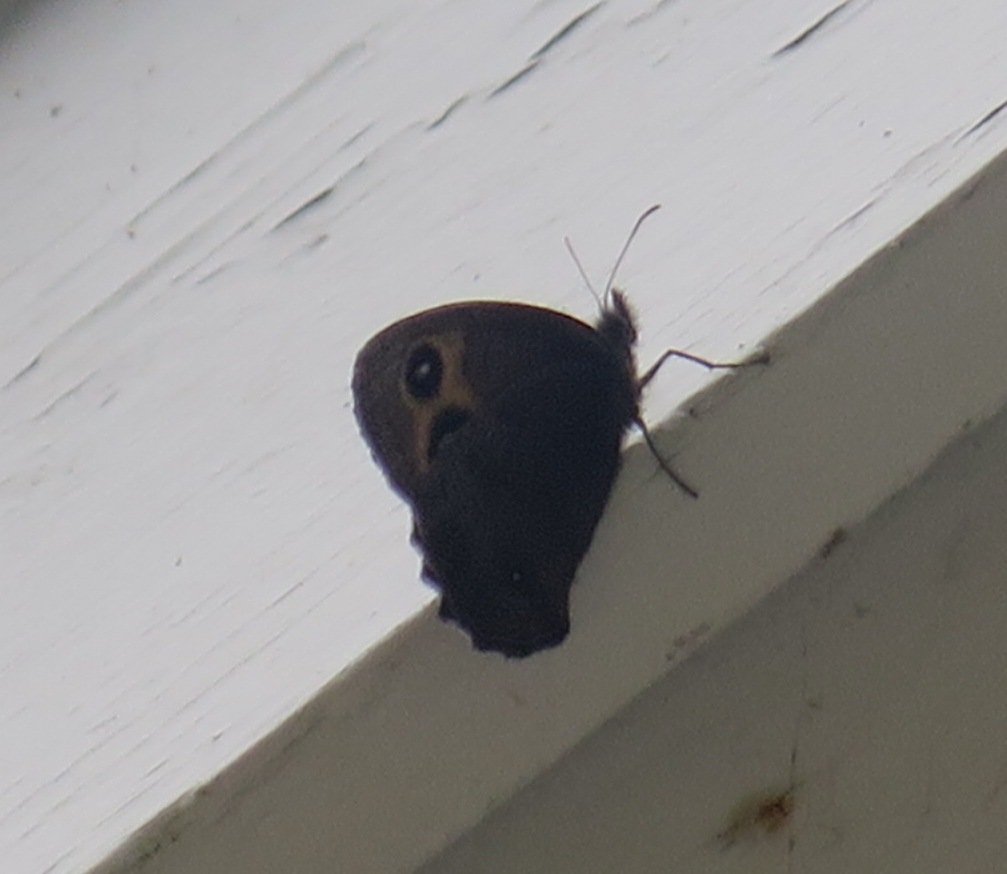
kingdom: Animalia
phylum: Arthropoda
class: Insecta
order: Lepidoptera
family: Nymphalidae
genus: Cercyonis
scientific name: Cercyonis pegala
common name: Common Wood-Nymph
